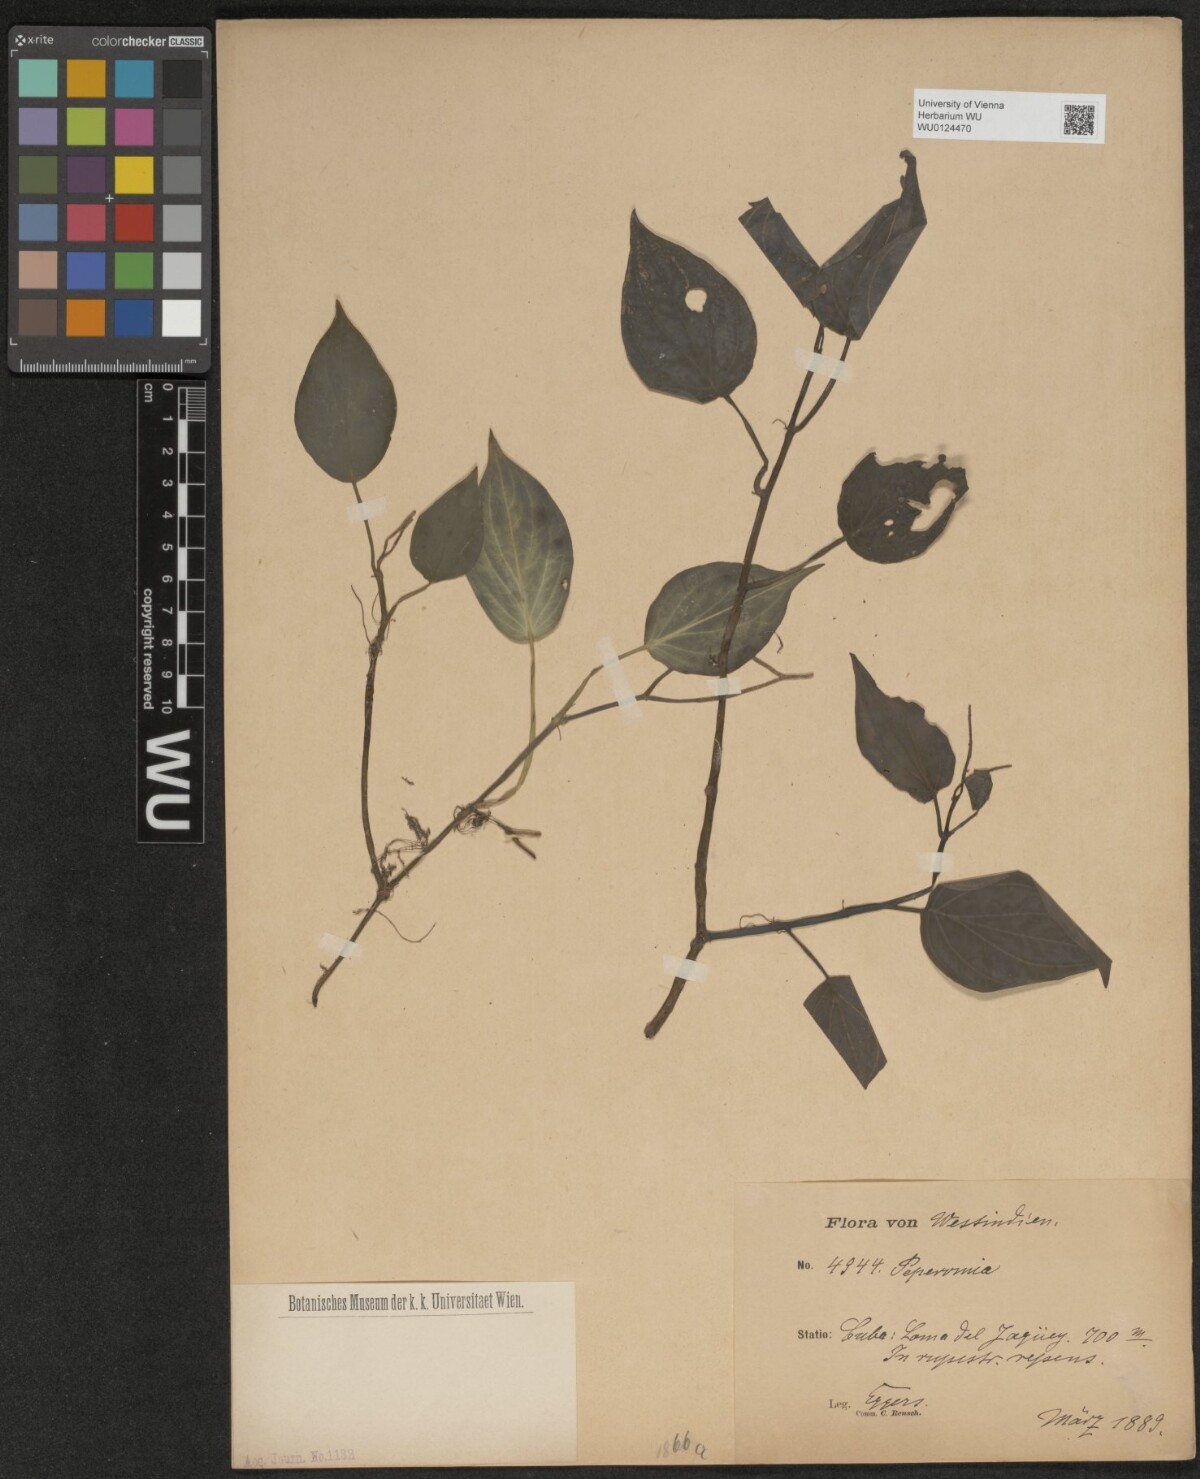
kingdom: Plantae
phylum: Tracheophyta
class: Magnoliopsida
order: Piperales
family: Piperaceae
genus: Peperomia
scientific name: Peperomia
